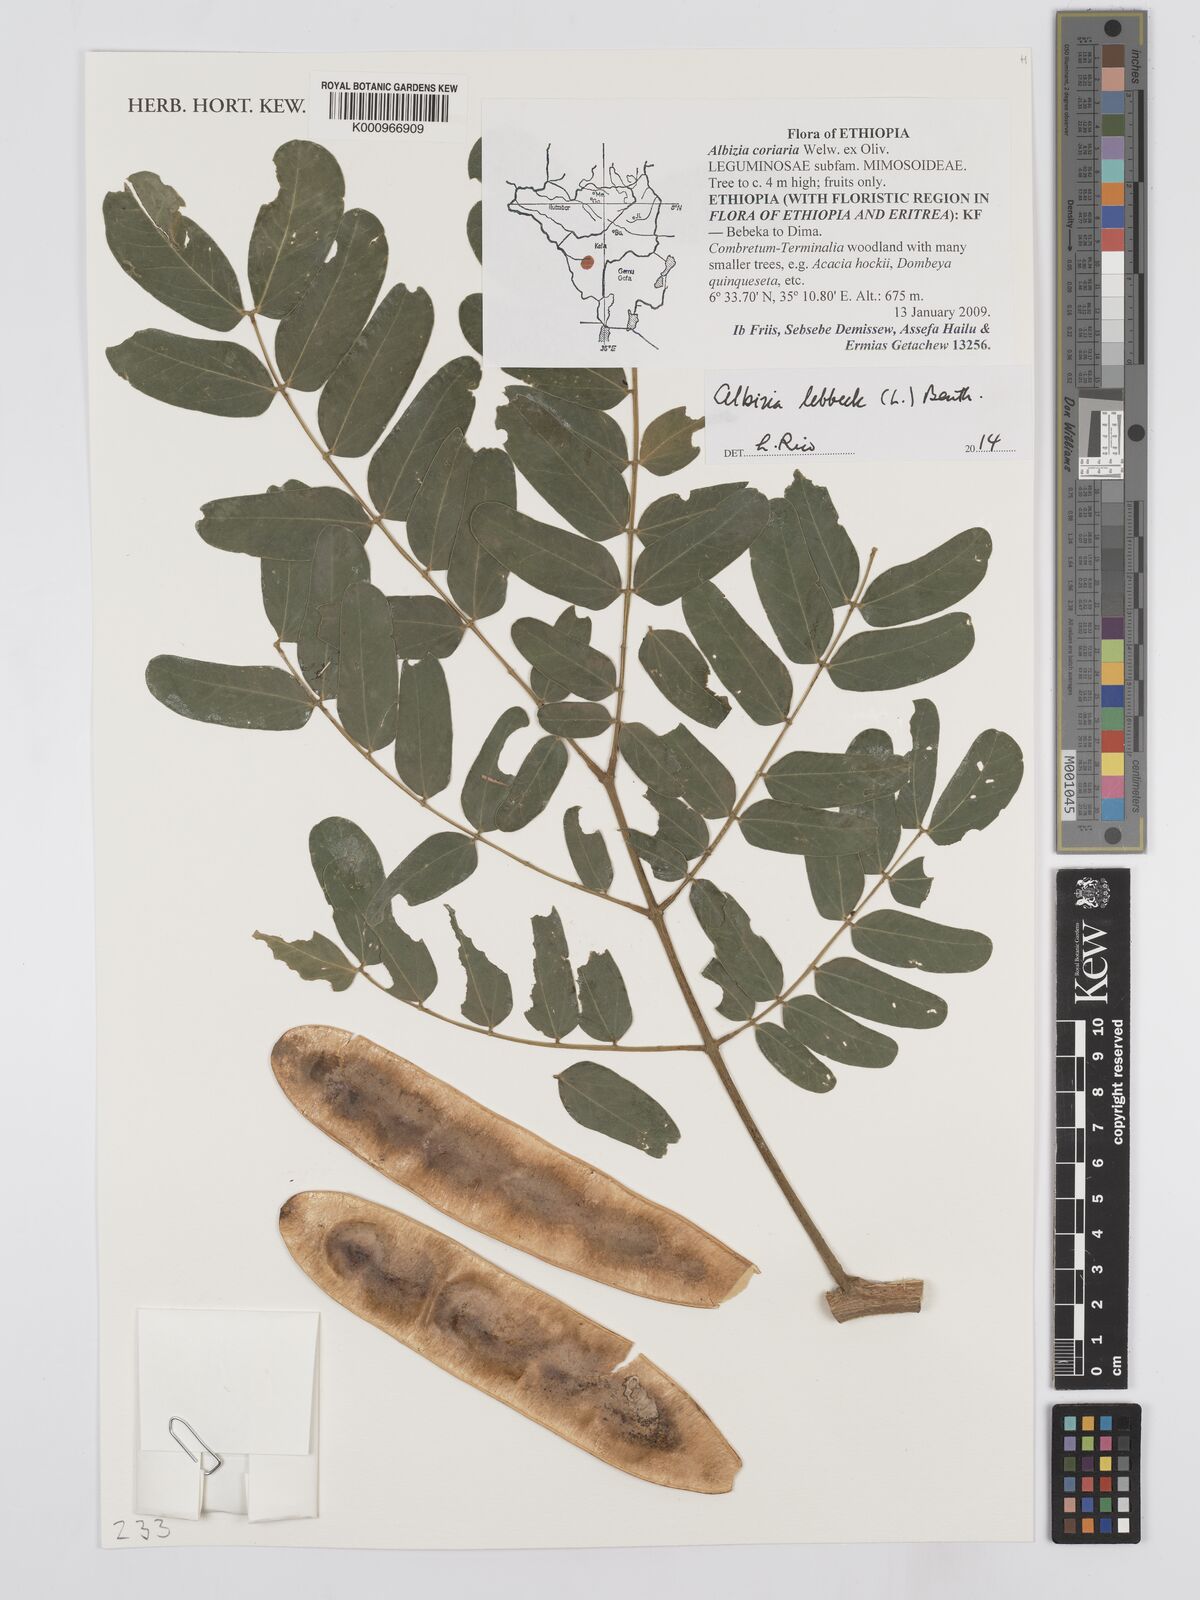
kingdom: Plantae
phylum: Tracheophyta
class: Magnoliopsida
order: Fabales
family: Fabaceae
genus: Albizia
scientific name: Albizia lebbeck
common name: Woman's tongue
